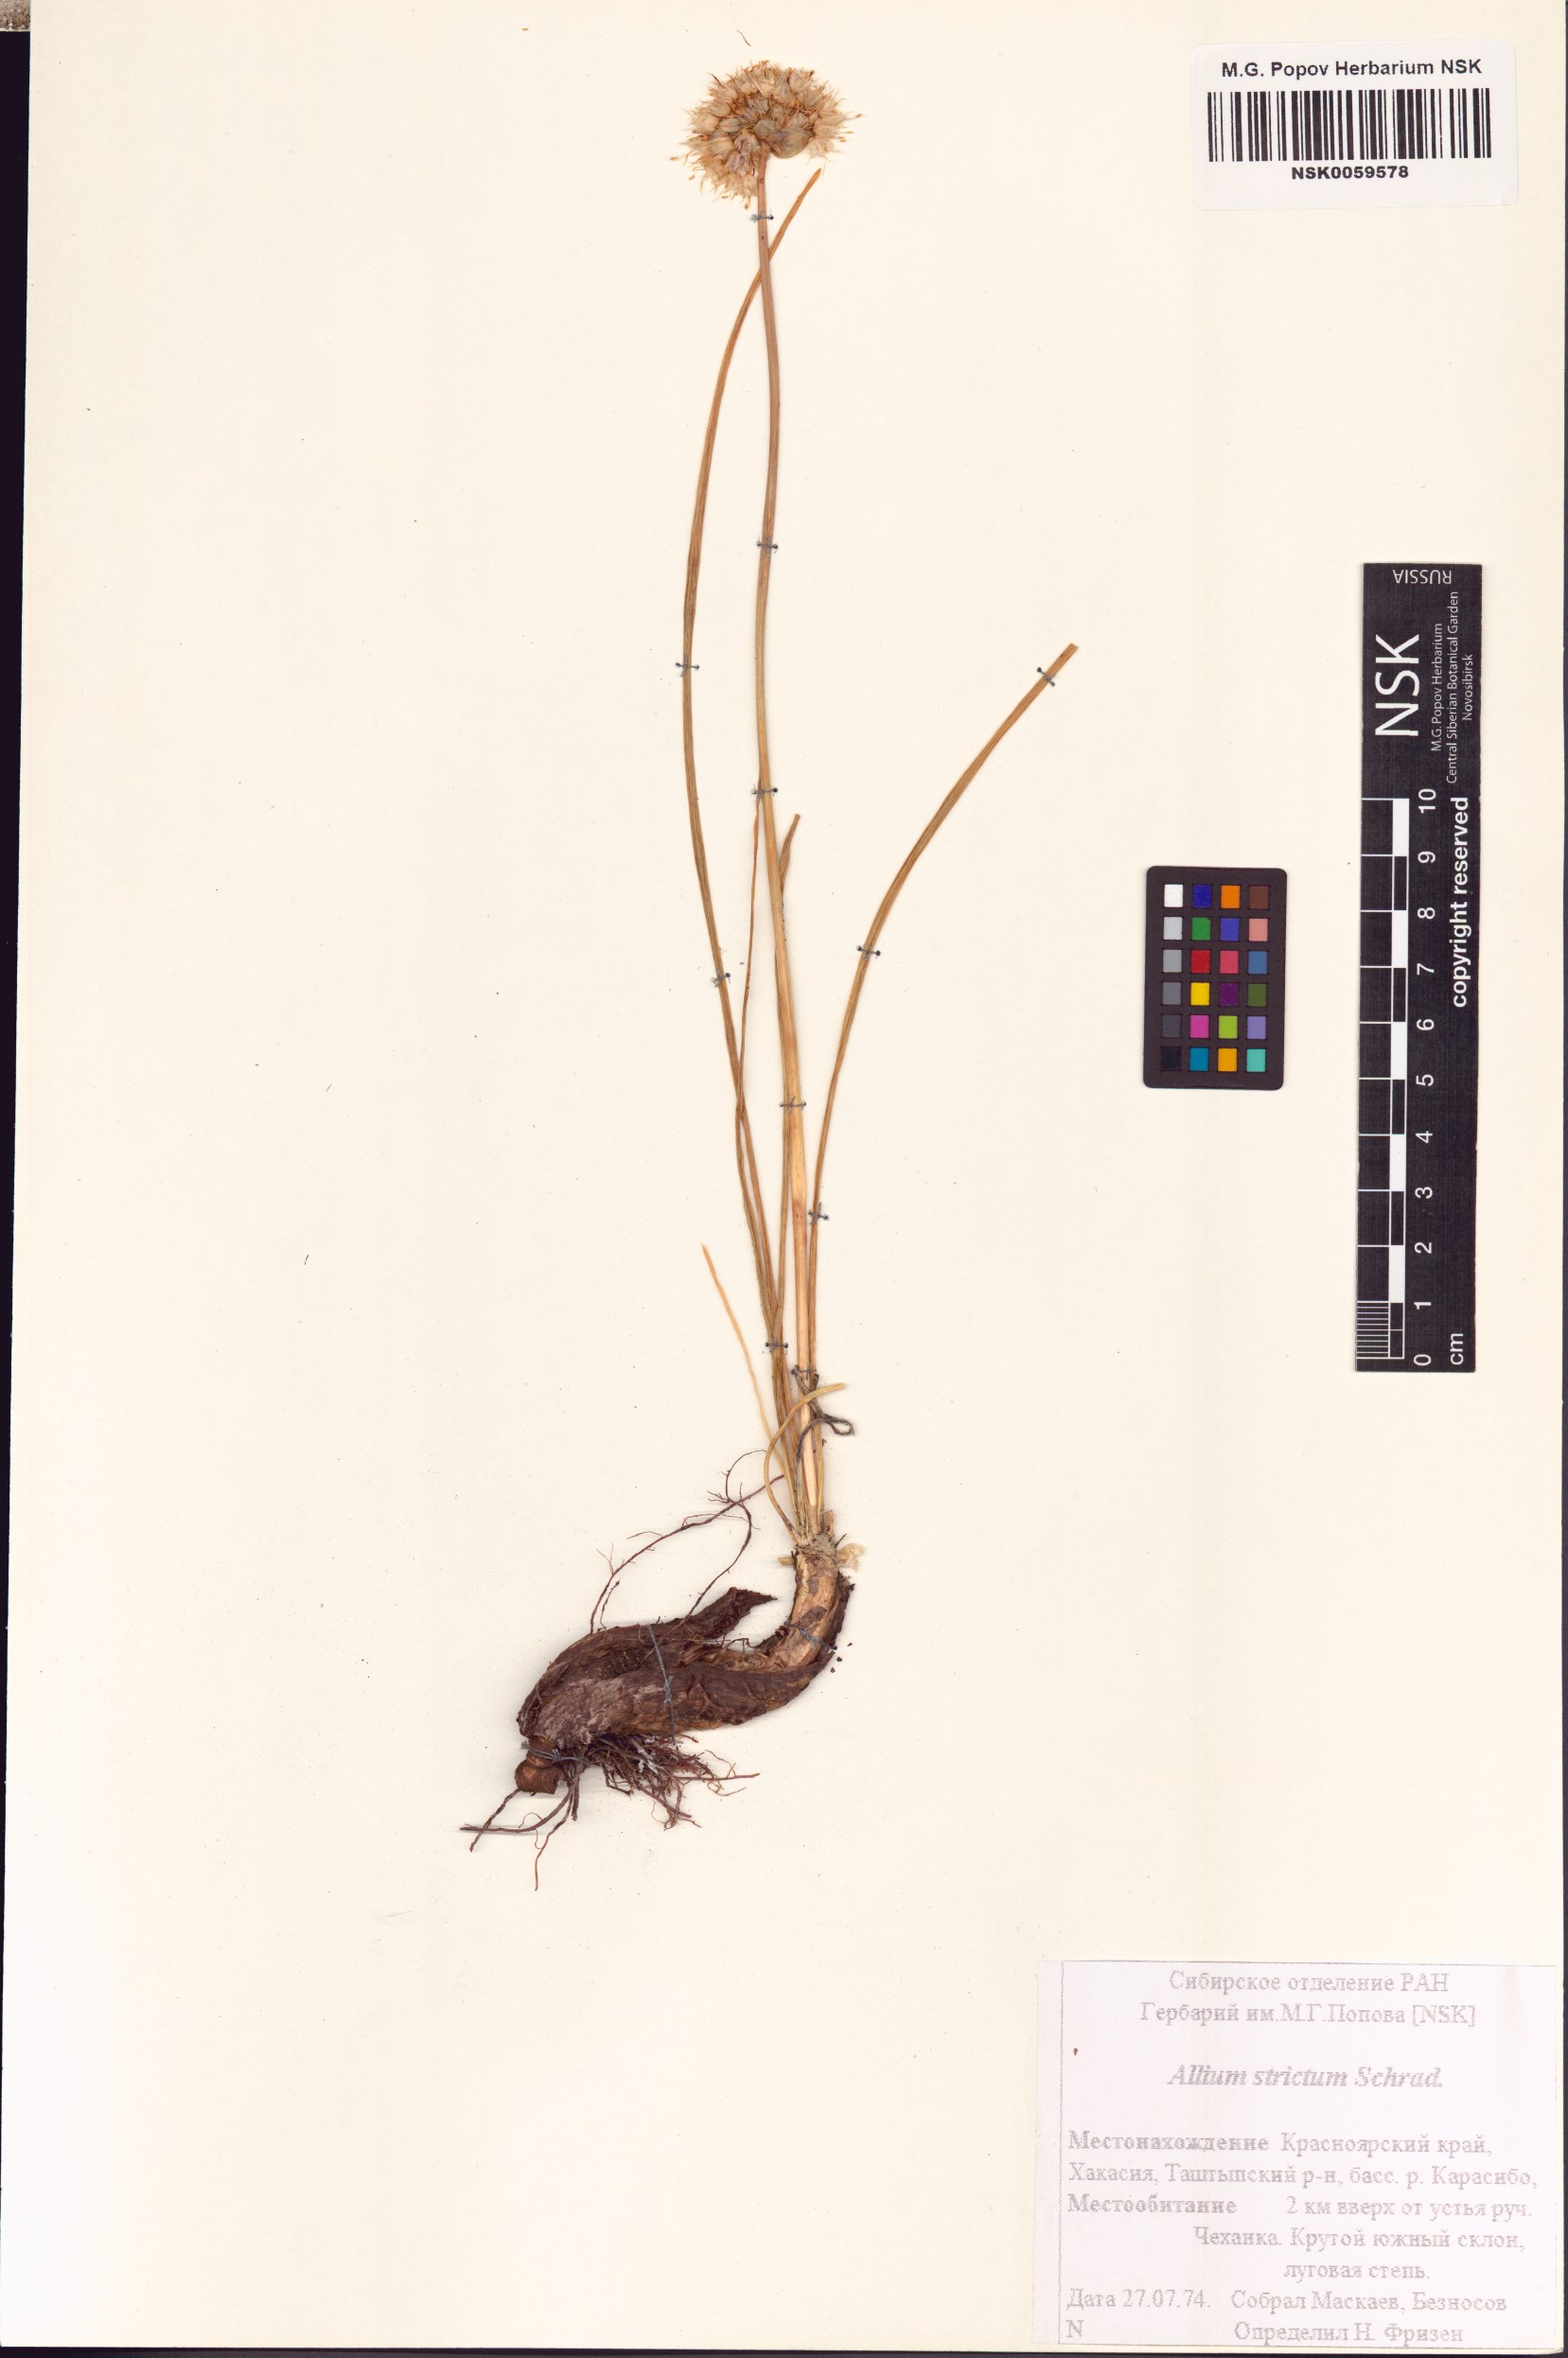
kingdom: Plantae
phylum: Tracheophyta
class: Liliopsida
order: Asparagales
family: Amaryllidaceae
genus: Allium
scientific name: Allium strictum
